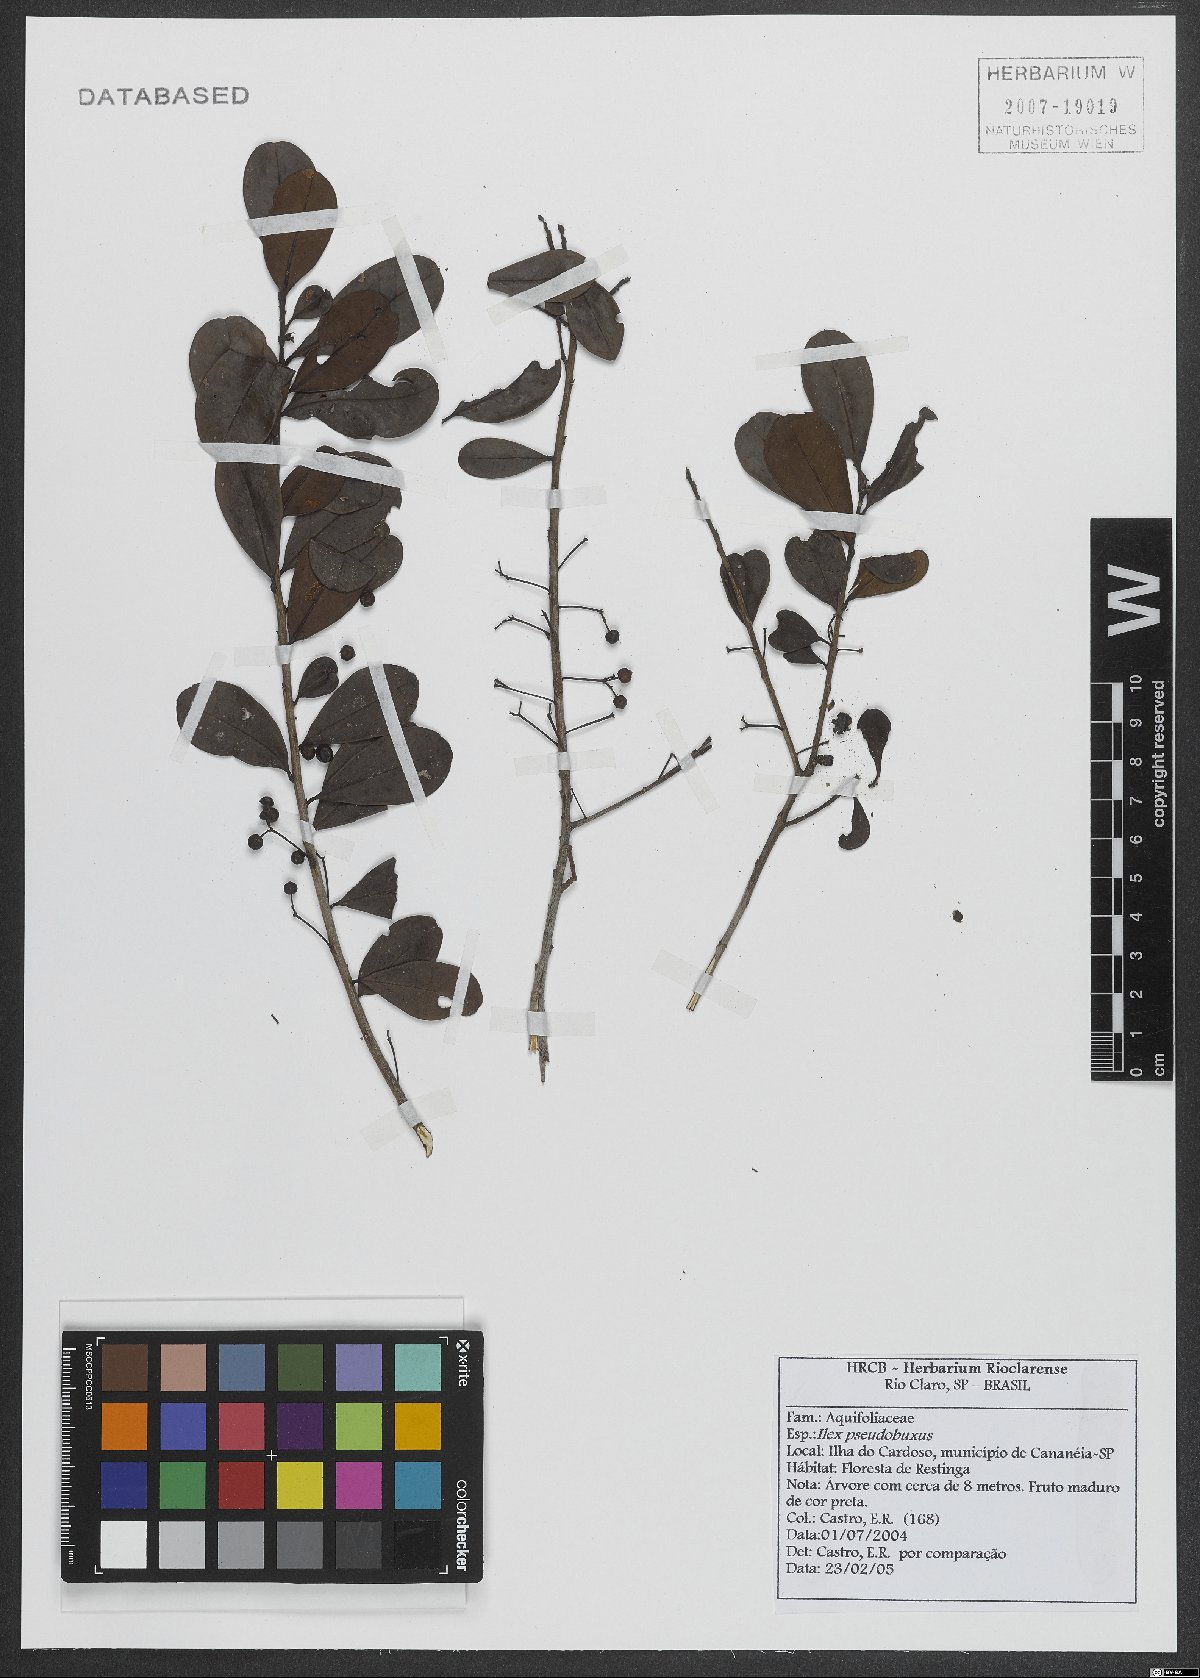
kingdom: Plantae
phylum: Tracheophyta
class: Magnoliopsida
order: Aquifoliales
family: Aquifoliaceae
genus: Ilex
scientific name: Ilex pseudobuxus
